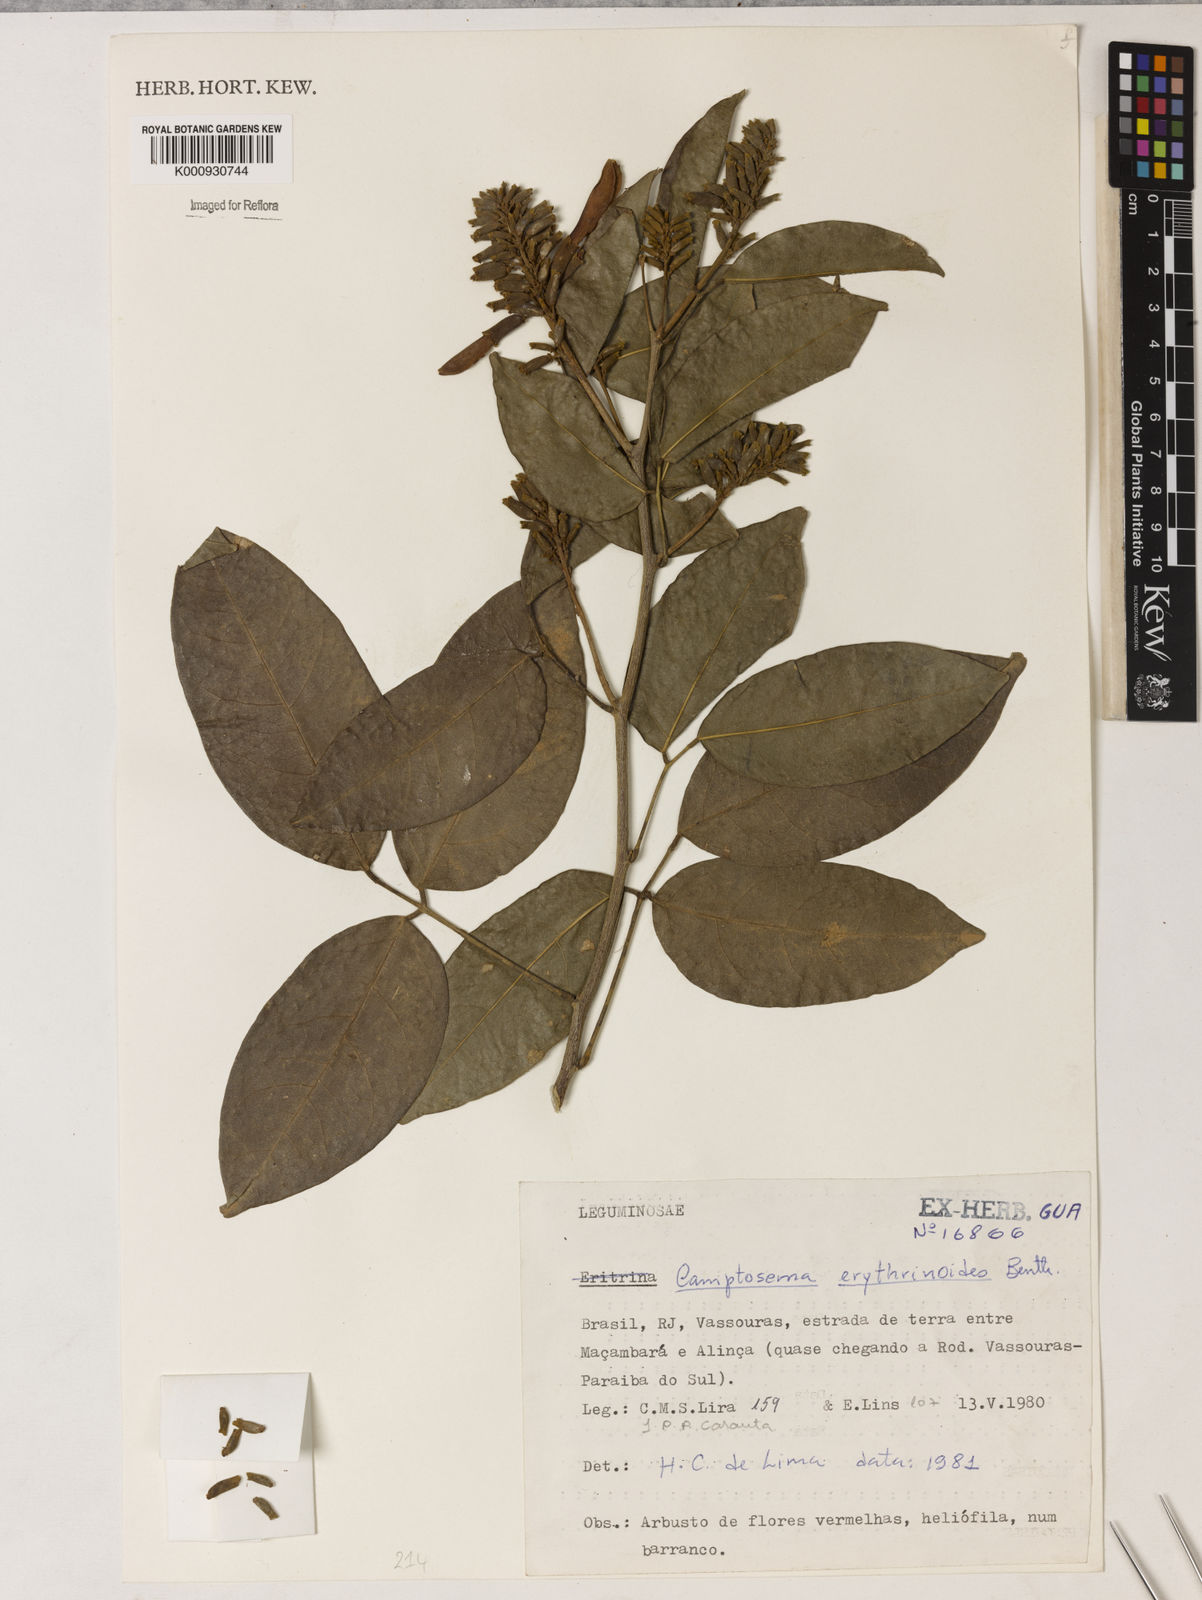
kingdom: Plantae
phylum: Tracheophyta
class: Magnoliopsida
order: Fabales
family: Fabaceae
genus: Cratylia
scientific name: Cratylia isopetala
